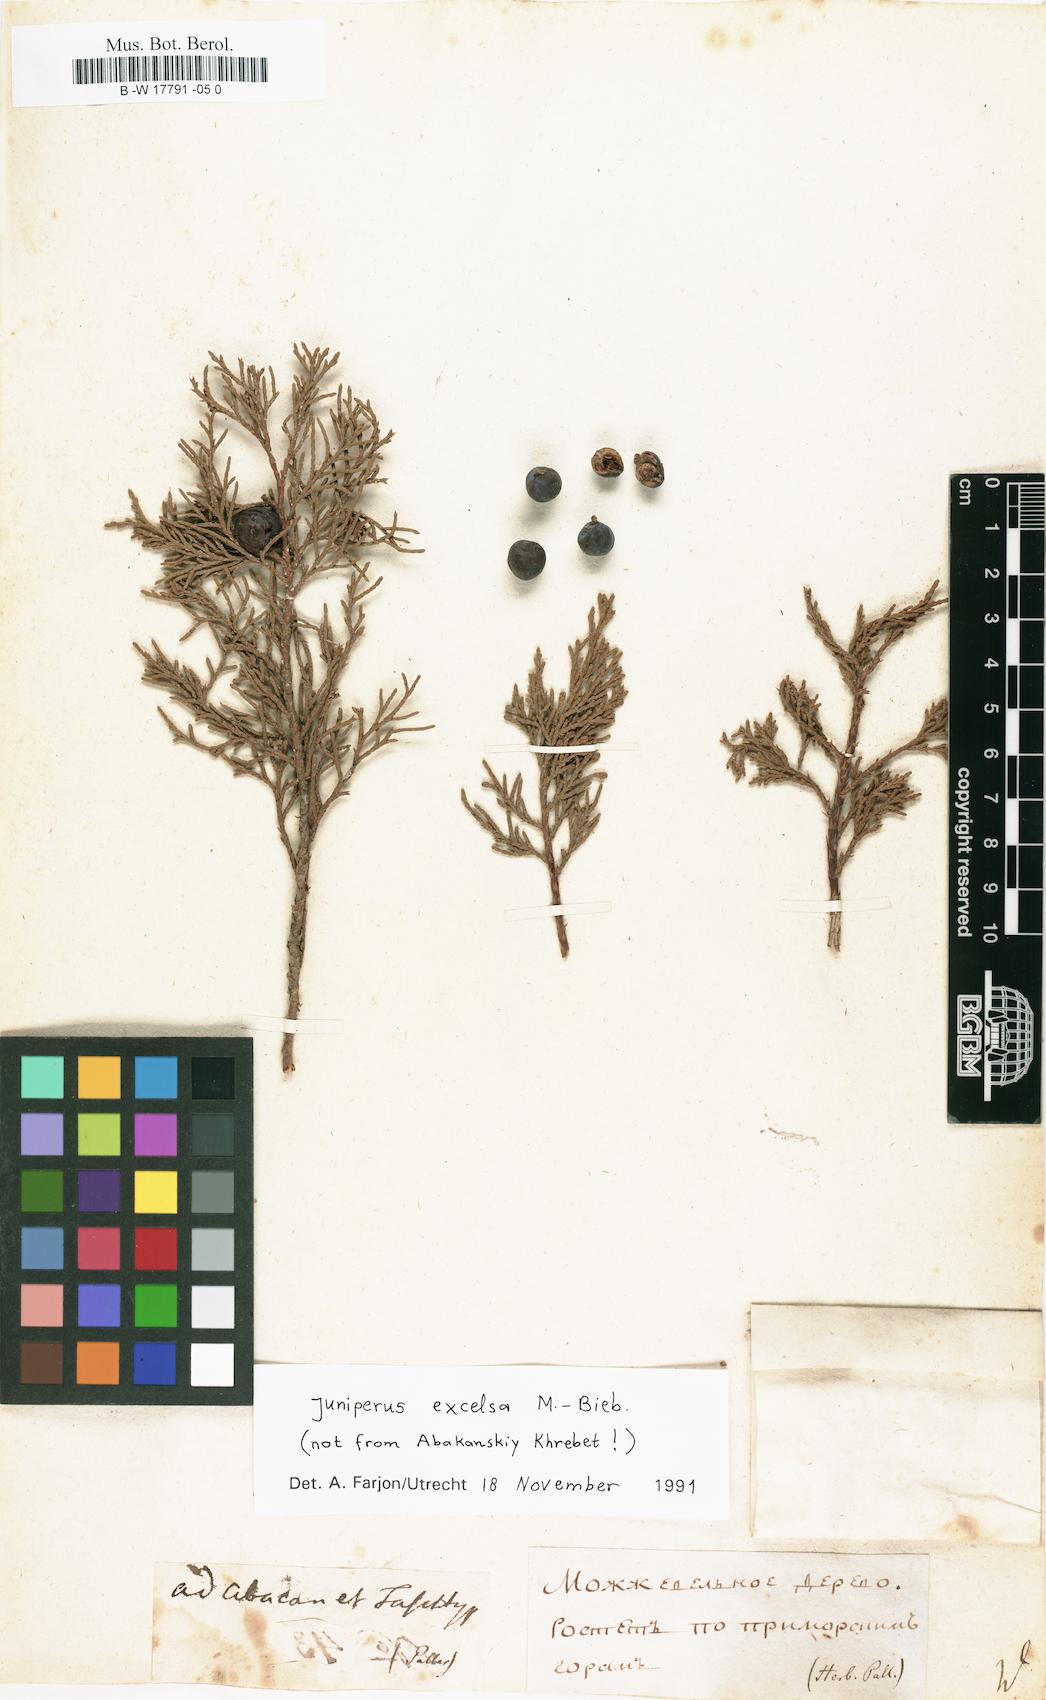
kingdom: Plantae
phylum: Tracheophyta
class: Pinopsida
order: Pinales
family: Cupressaceae
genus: Cupressus
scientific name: Cupressus
